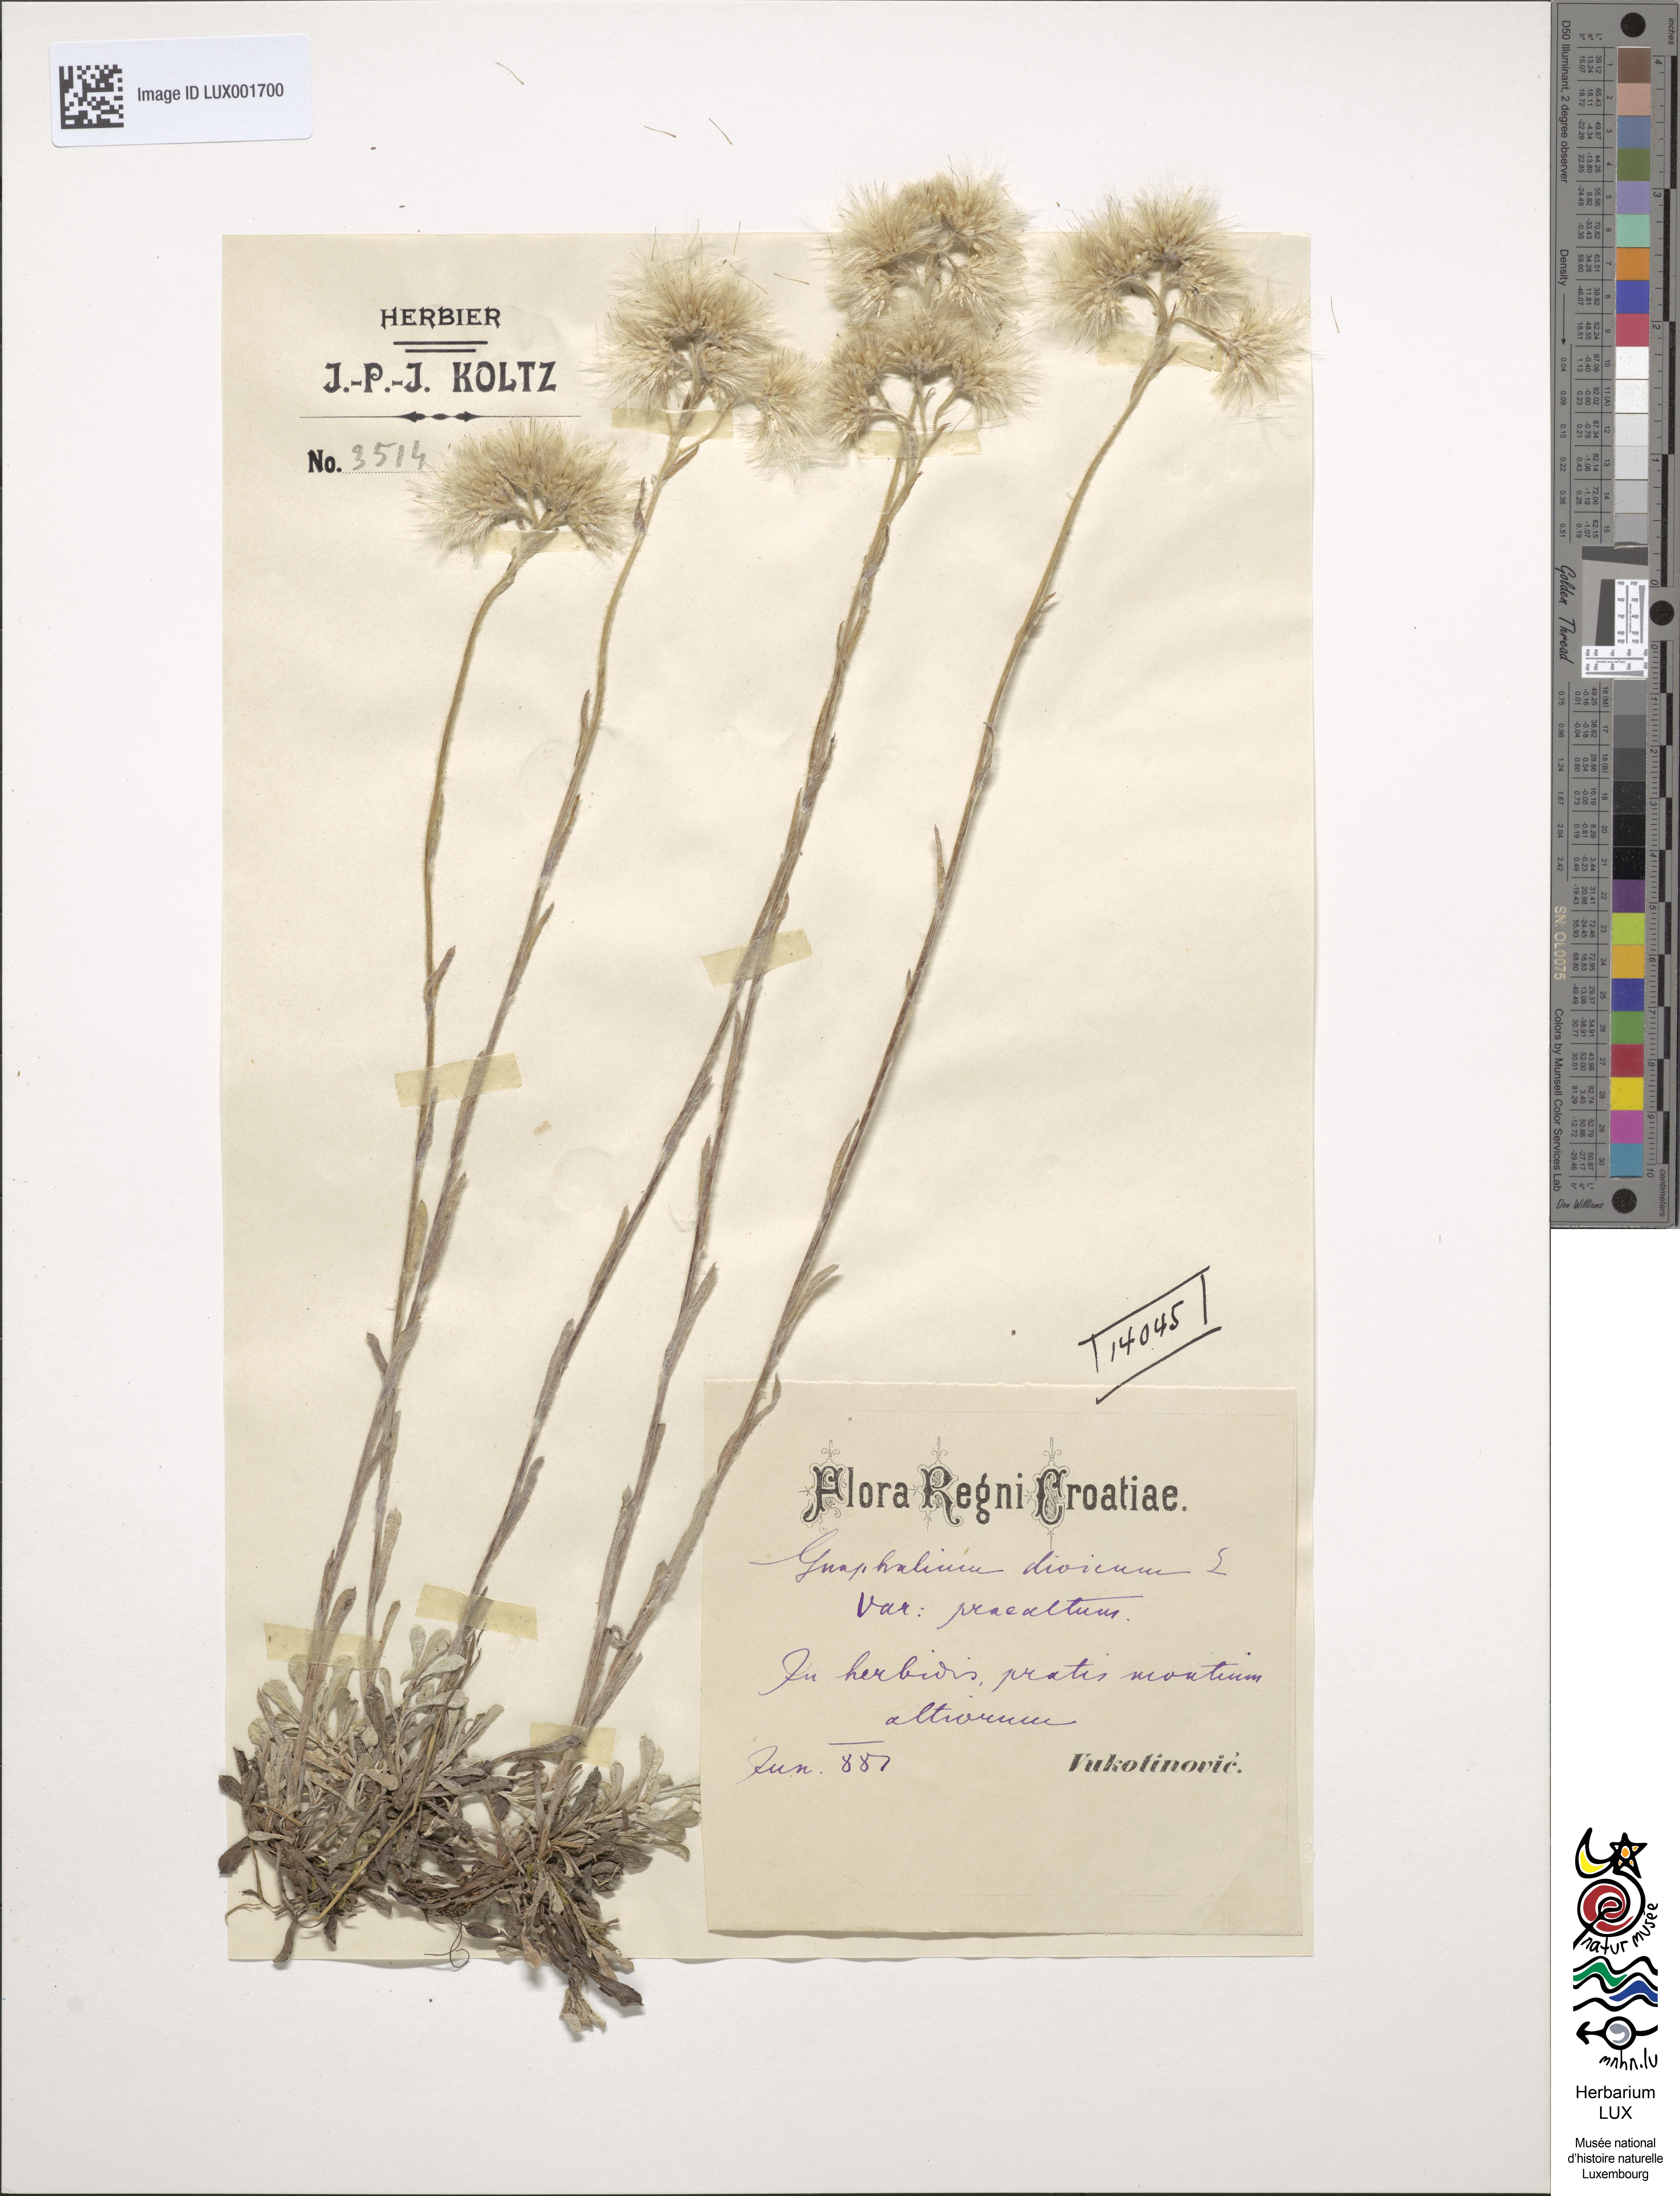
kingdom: Plantae
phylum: Tracheophyta
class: Magnoliopsida
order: Asterales
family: Asteraceae
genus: Antennaria
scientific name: Antennaria dioica
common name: Mountain everlasting
